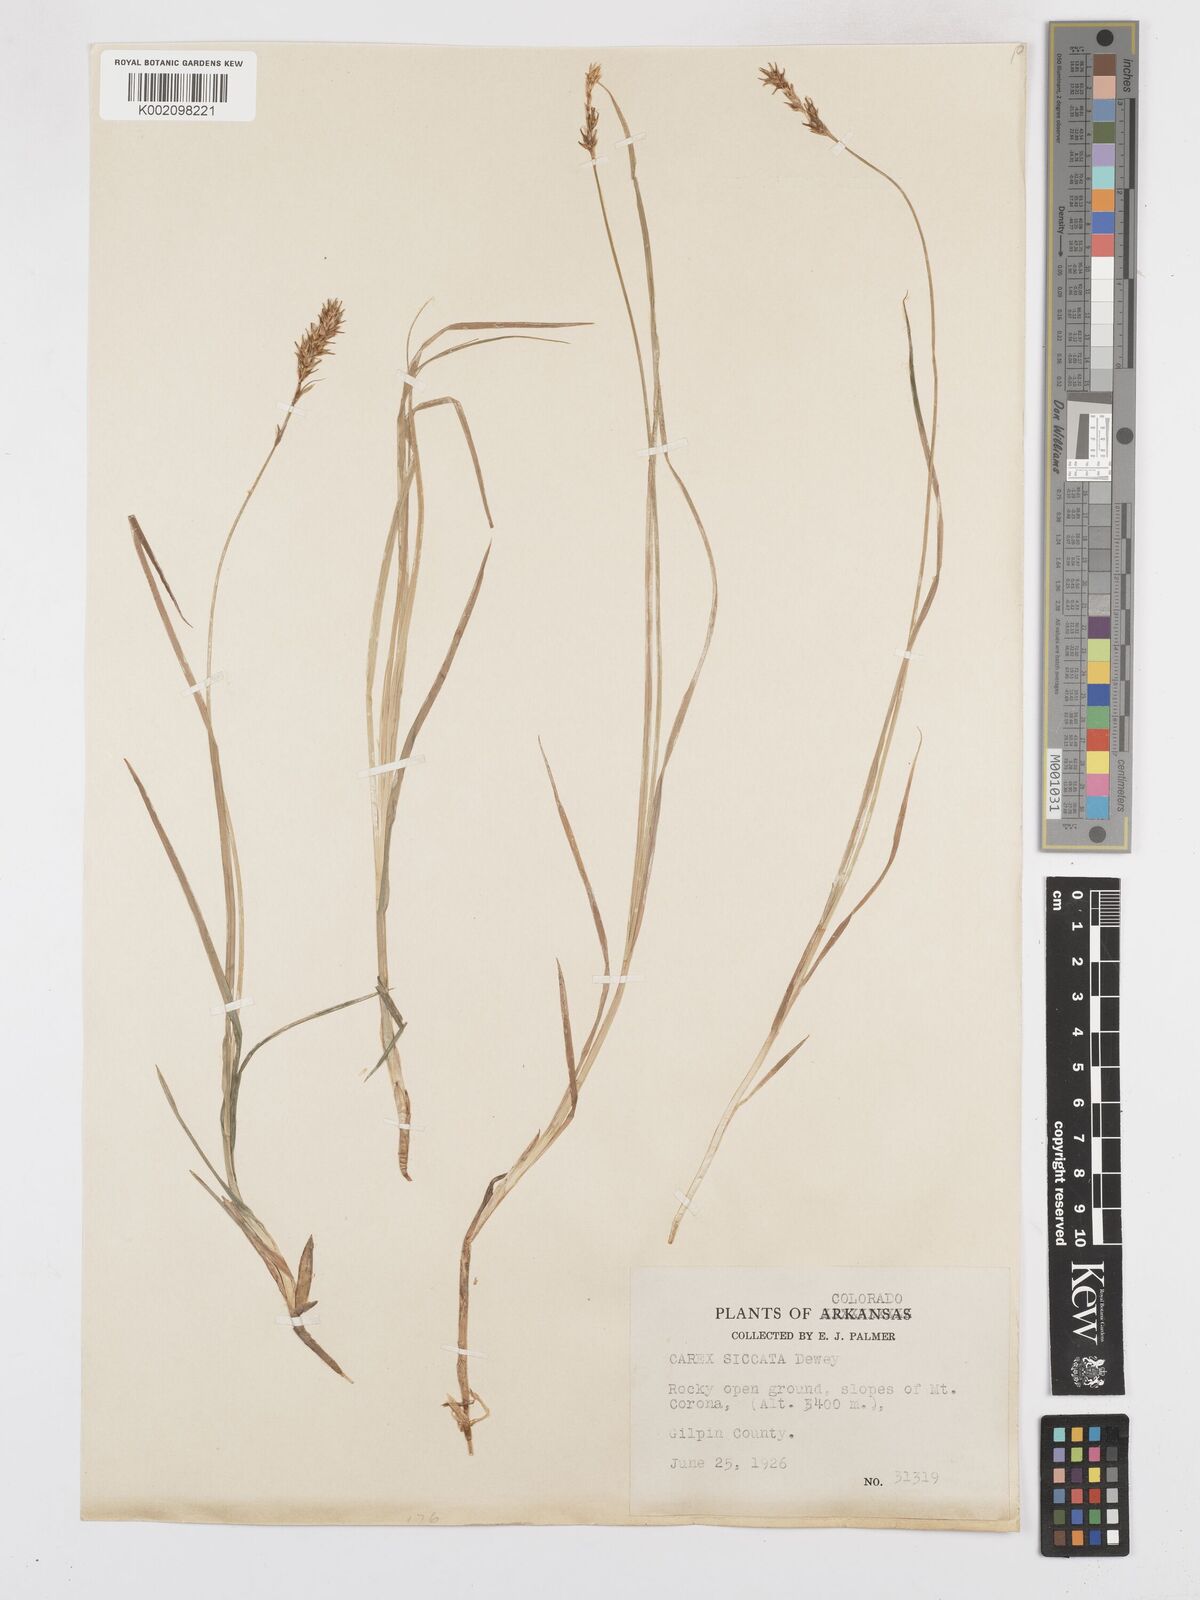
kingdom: Plantae
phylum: Tracheophyta
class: Liliopsida
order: Poales
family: Cyperaceae
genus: Carex
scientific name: Carex foenea
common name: Bronze sedge
